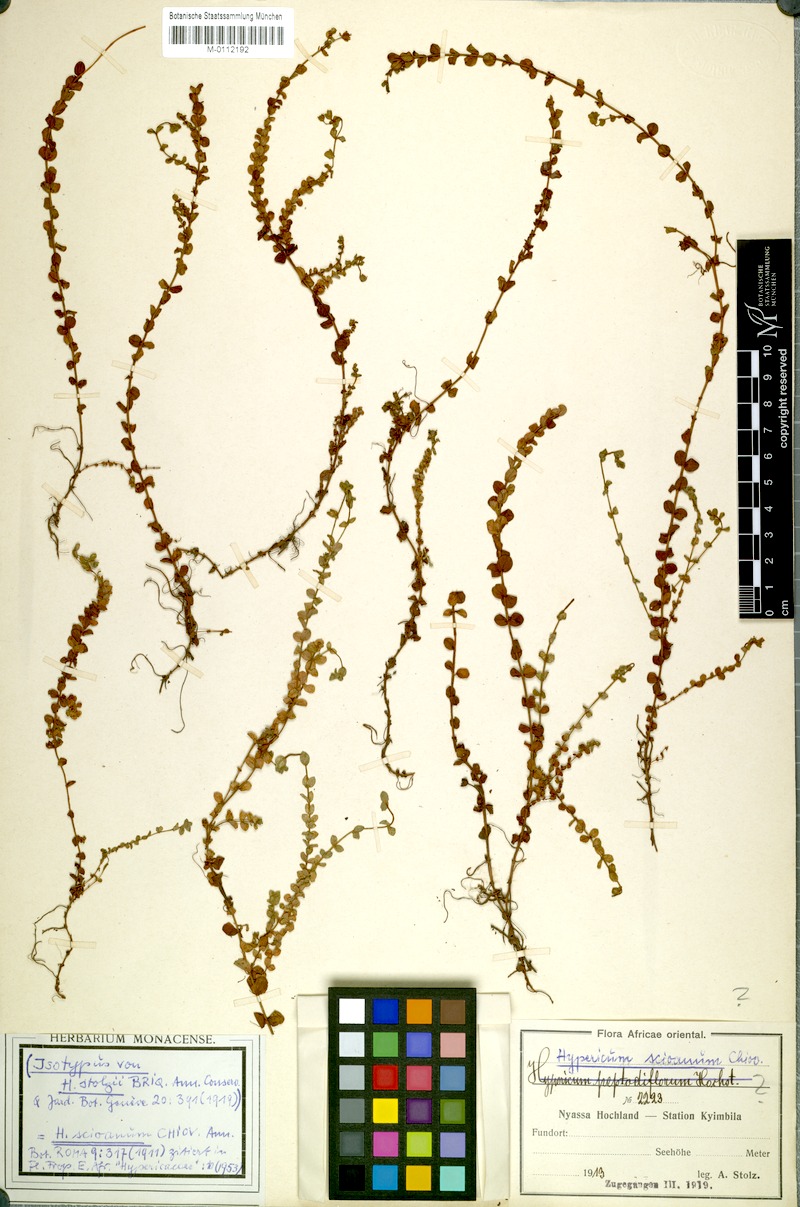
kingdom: Plantae
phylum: Tracheophyta
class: Magnoliopsida
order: Malpighiales
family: Hypericaceae
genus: Hypericum
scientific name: Hypericum scioanum
